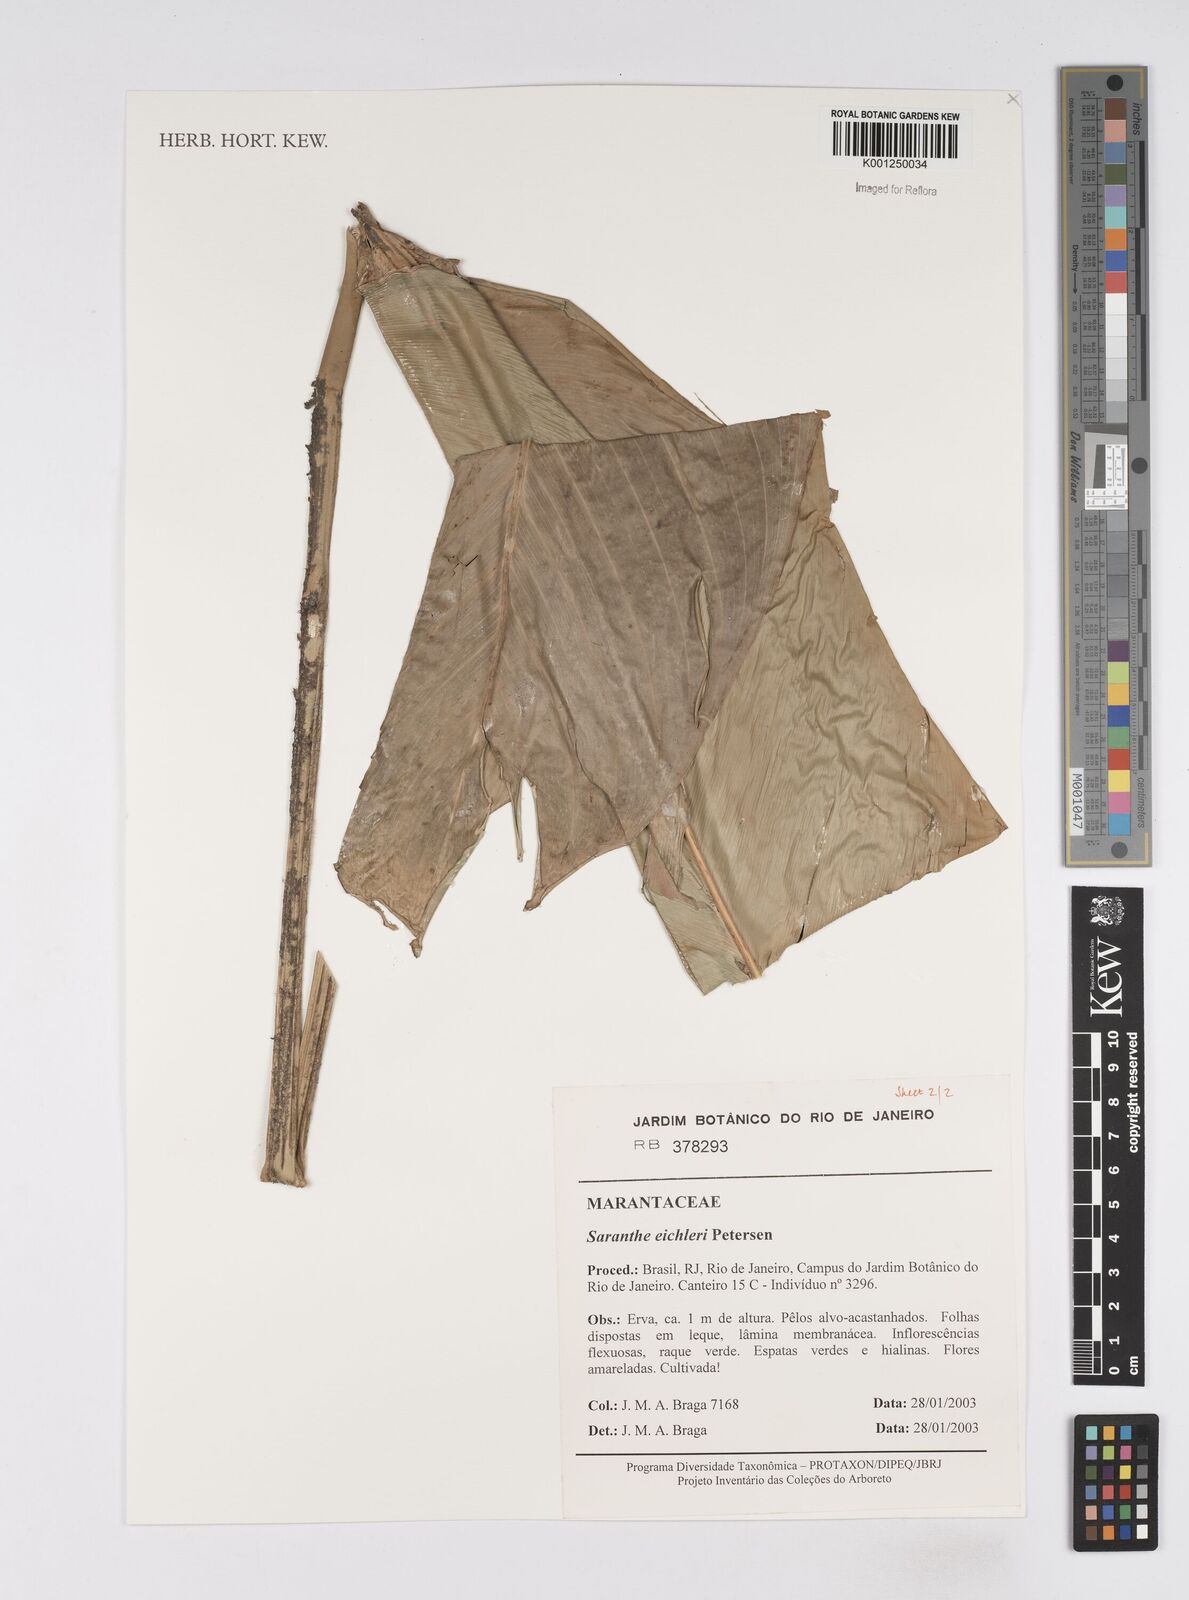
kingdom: Plantae
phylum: Tracheophyta
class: Liliopsida
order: Zingiberales
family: Marantaceae
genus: Saranthe
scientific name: Saranthe eichleri
